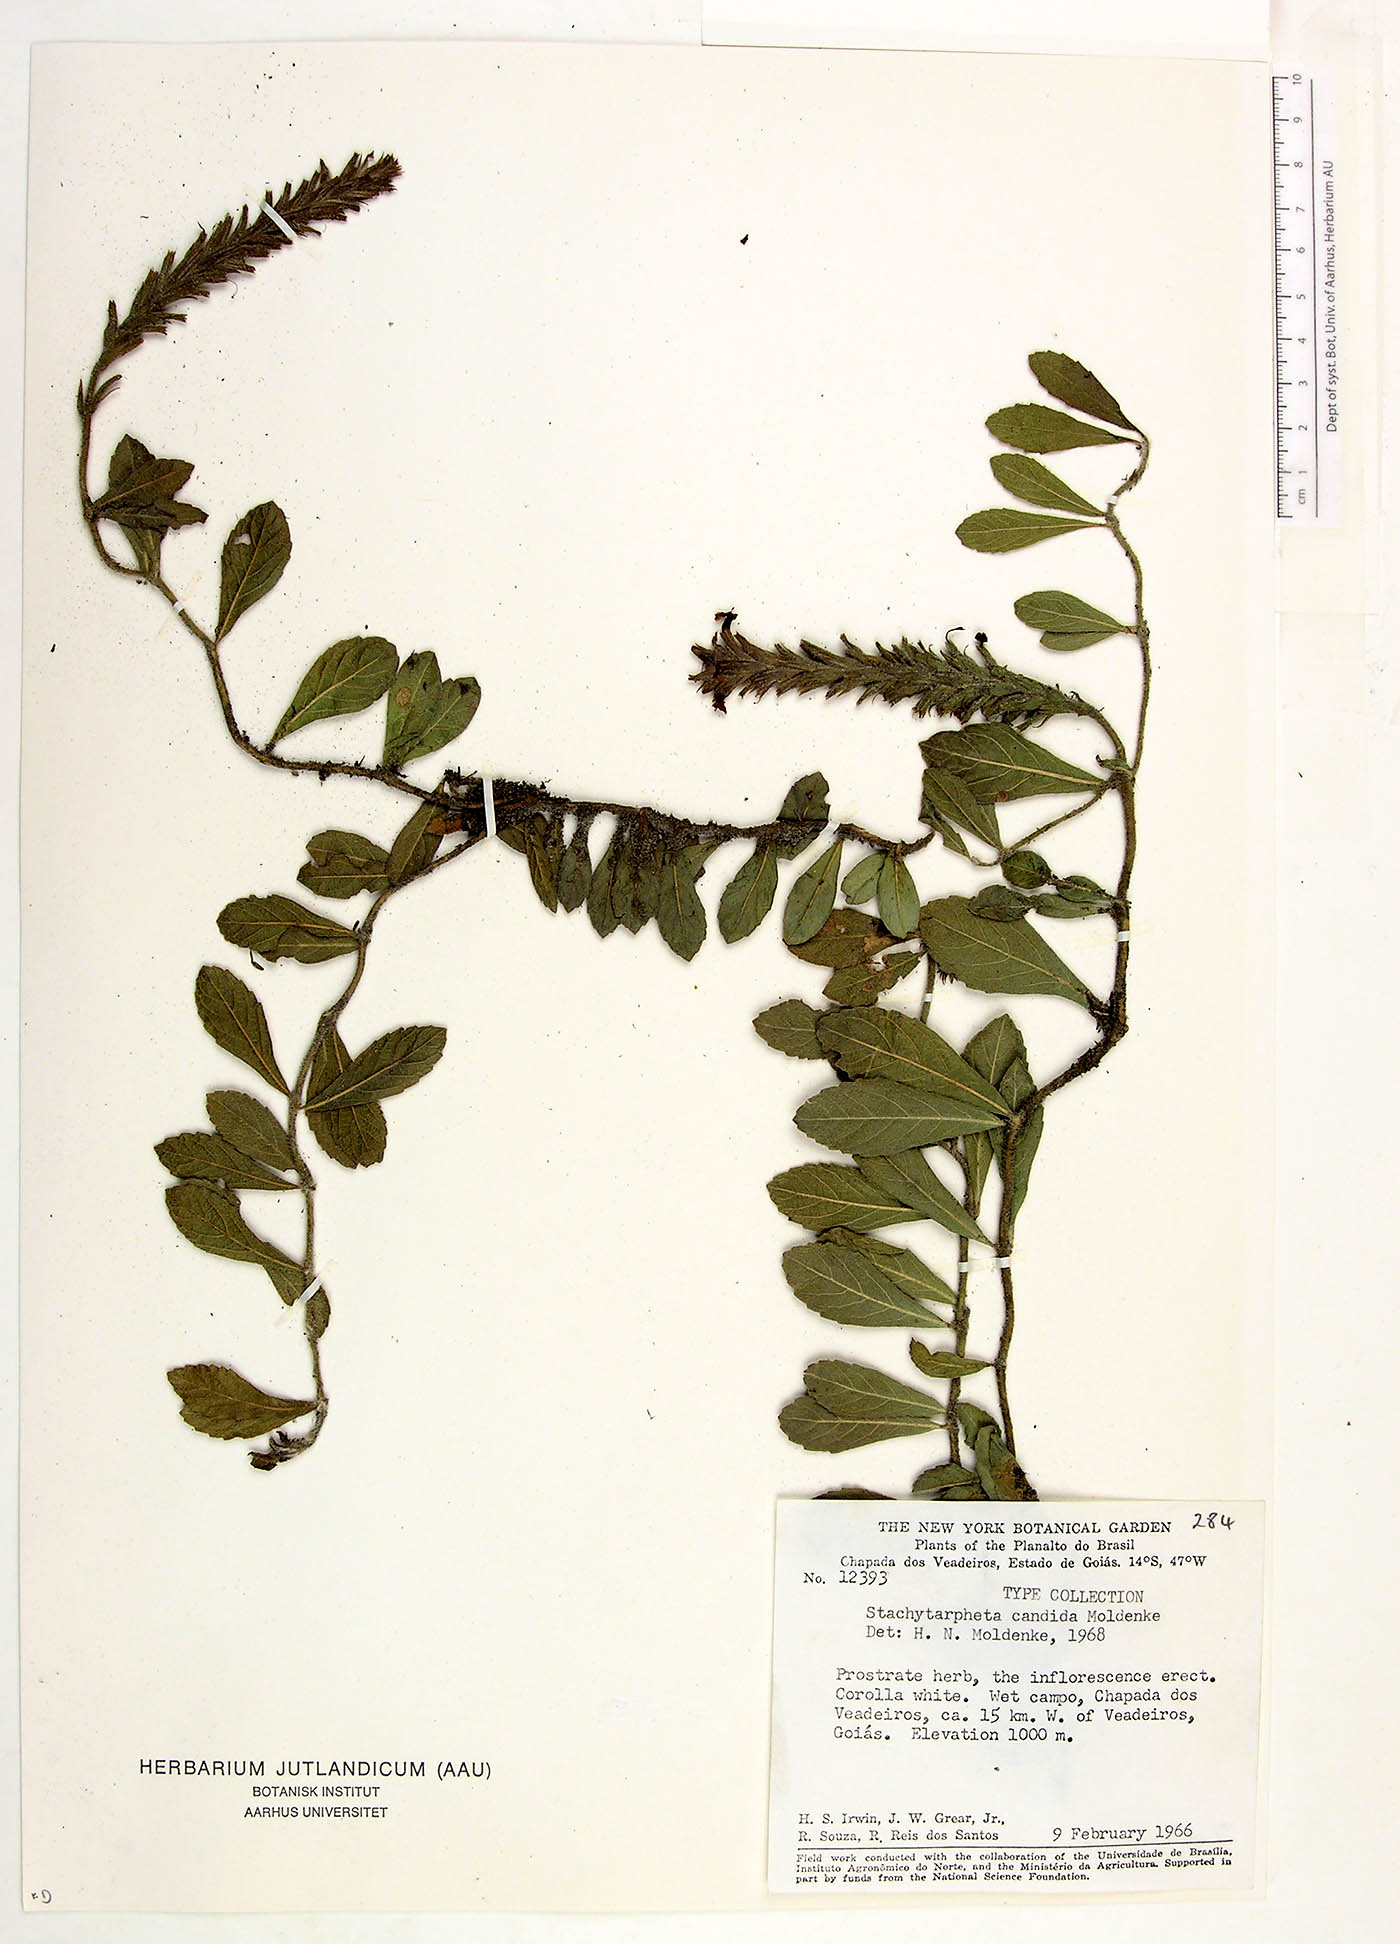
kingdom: Plantae
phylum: Tracheophyta
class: Magnoliopsida
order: Lamiales
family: Verbenaceae
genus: Stachytarpheta
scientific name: Stachytarpheta candida
